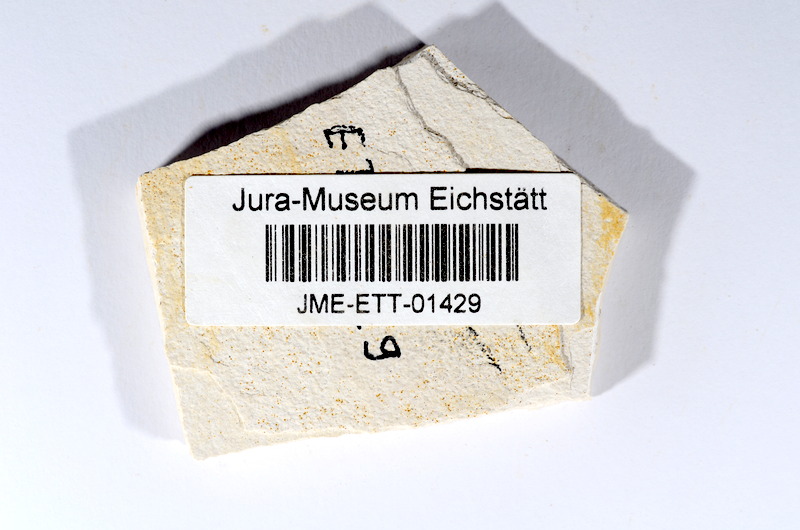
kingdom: Animalia
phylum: Chordata
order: Salmoniformes
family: Orthogonikleithridae
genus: Orthogonikleithrus
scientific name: Orthogonikleithrus hoelli
